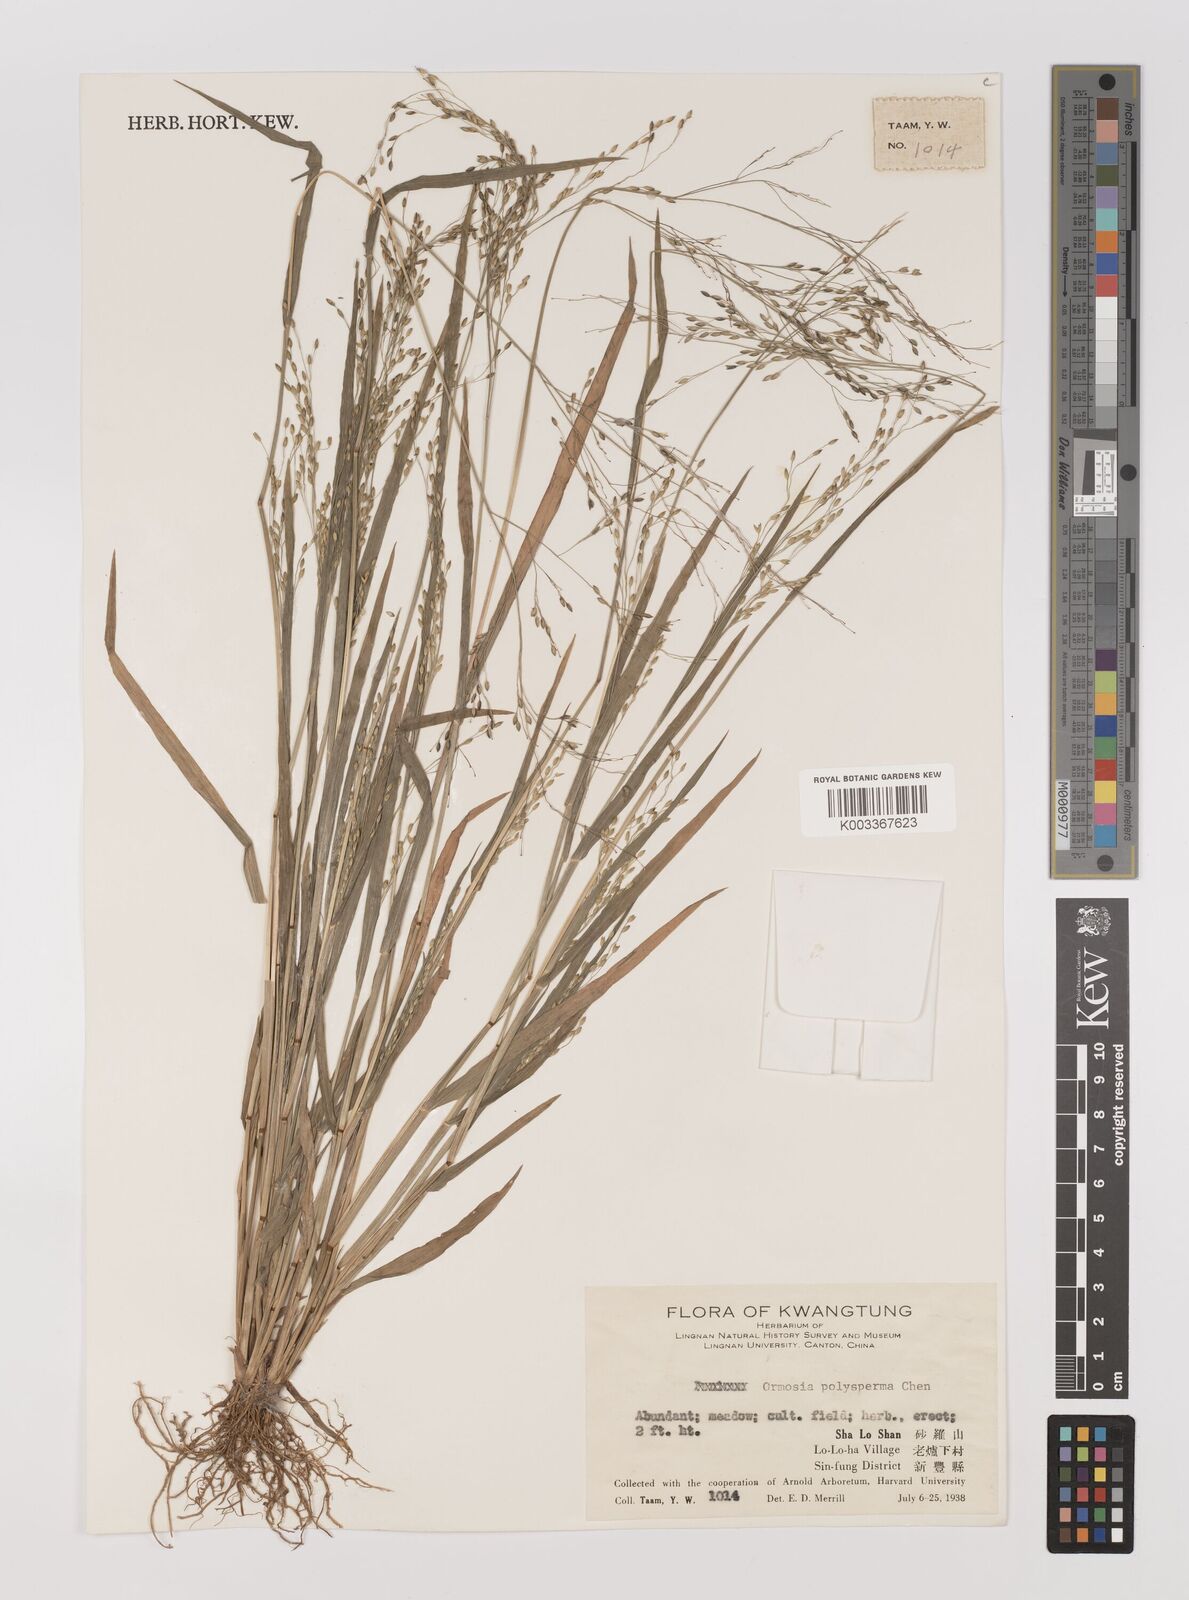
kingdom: Plantae
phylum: Tracheophyta
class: Liliopsida
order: Poales
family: Poaceae
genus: Panicum
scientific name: Panicum sumatrense
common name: Little millet
